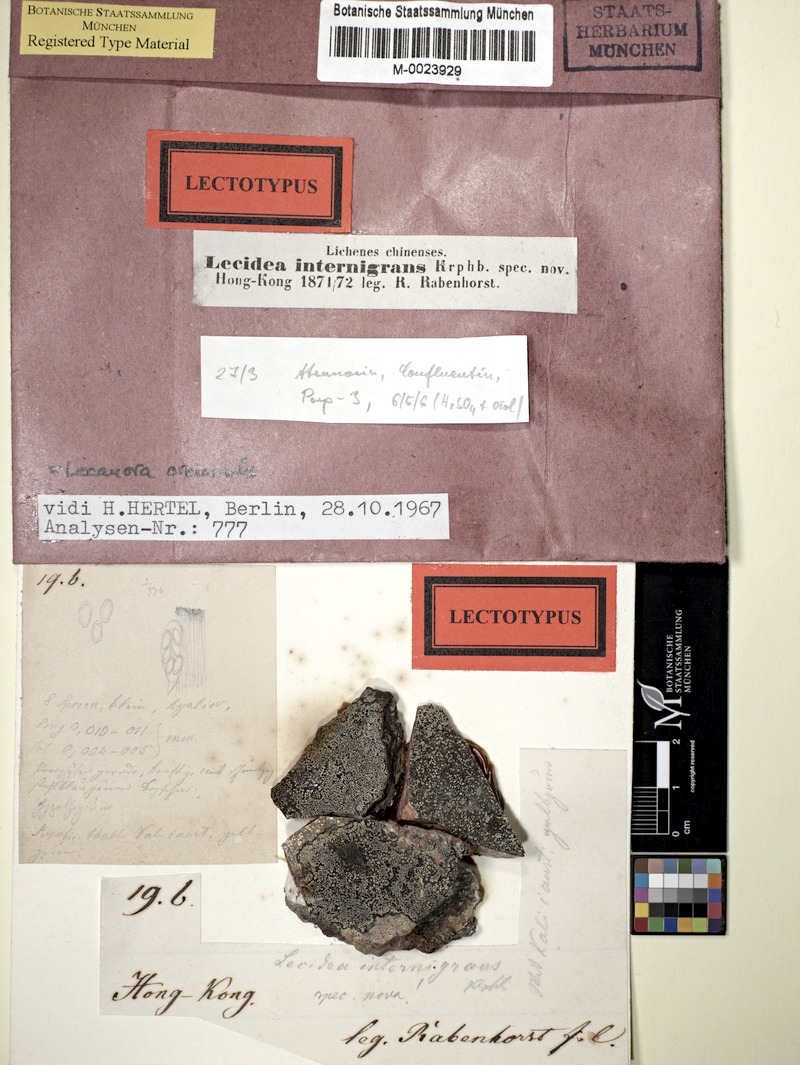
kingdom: Fungi
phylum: Ascomycota
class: Lecanoromycetes
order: Lecanorales
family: Lecanoraceae
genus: Lecanora
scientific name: Lecanora oreinoides
